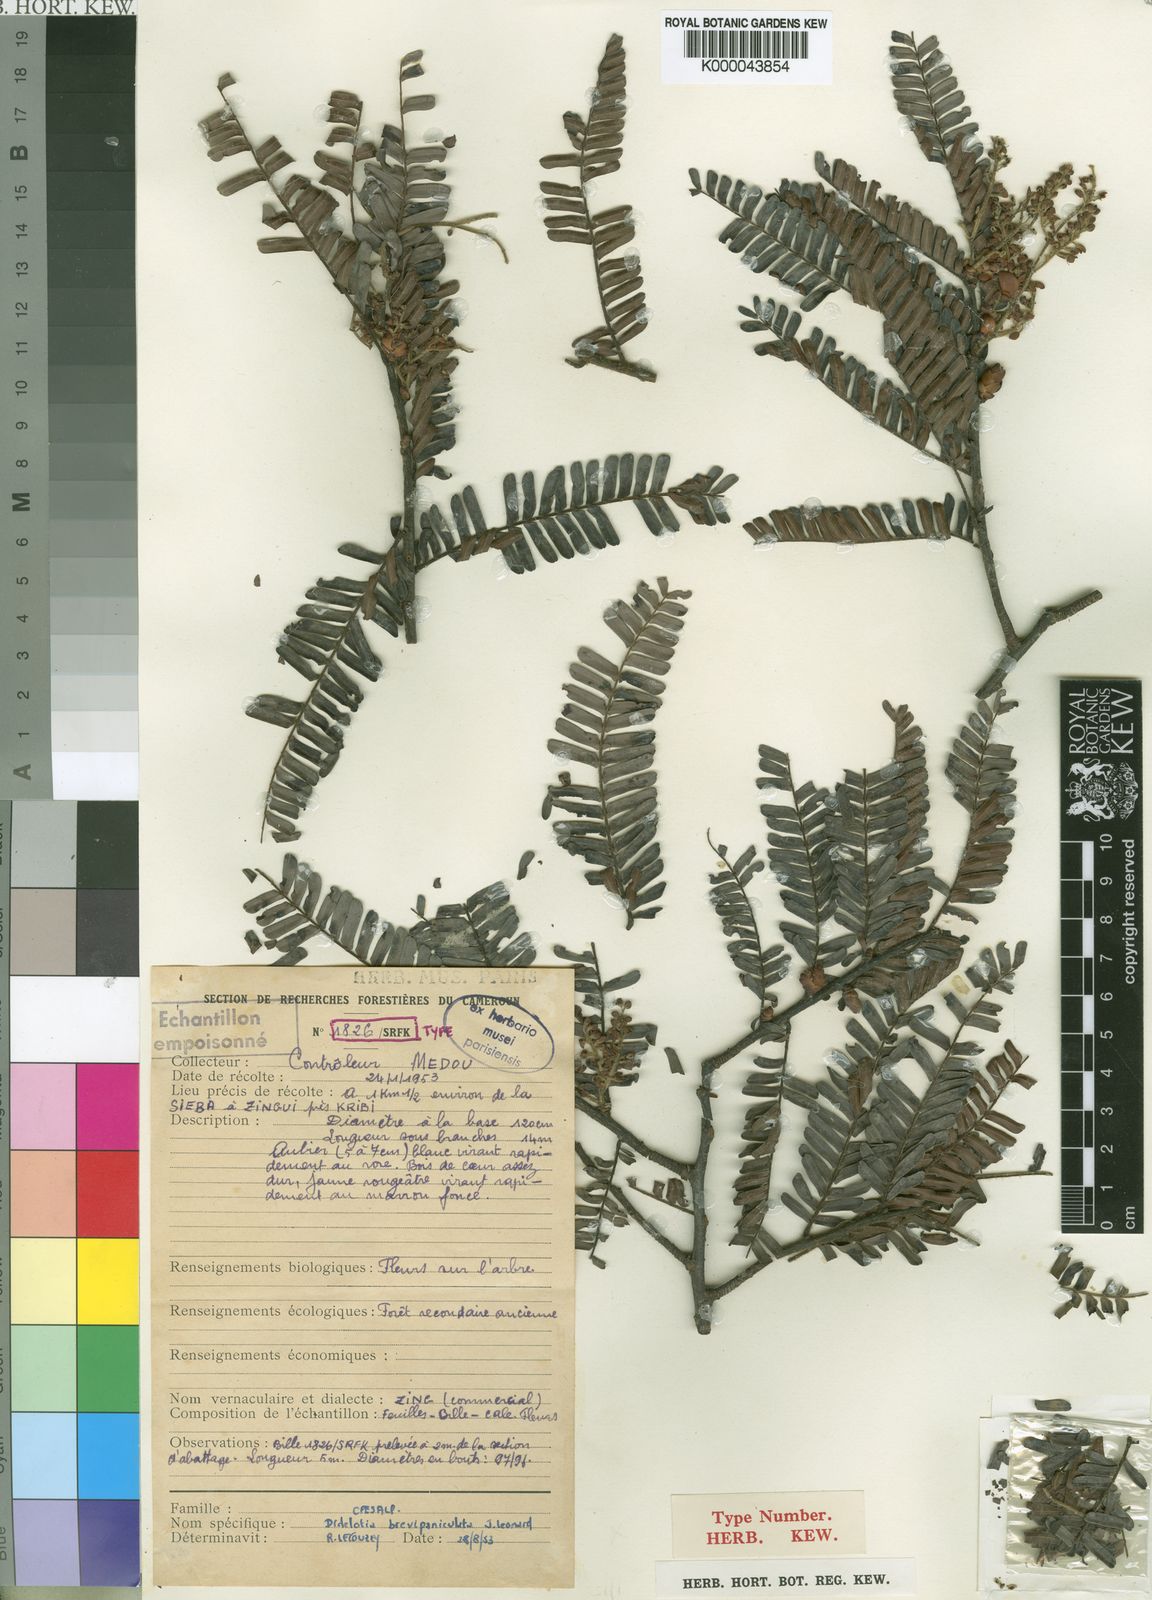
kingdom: Plantae
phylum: Tracheophyta
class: Magnoliopsida
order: Fabales
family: Fabaceae
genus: Didelotia
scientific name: Didelotia
